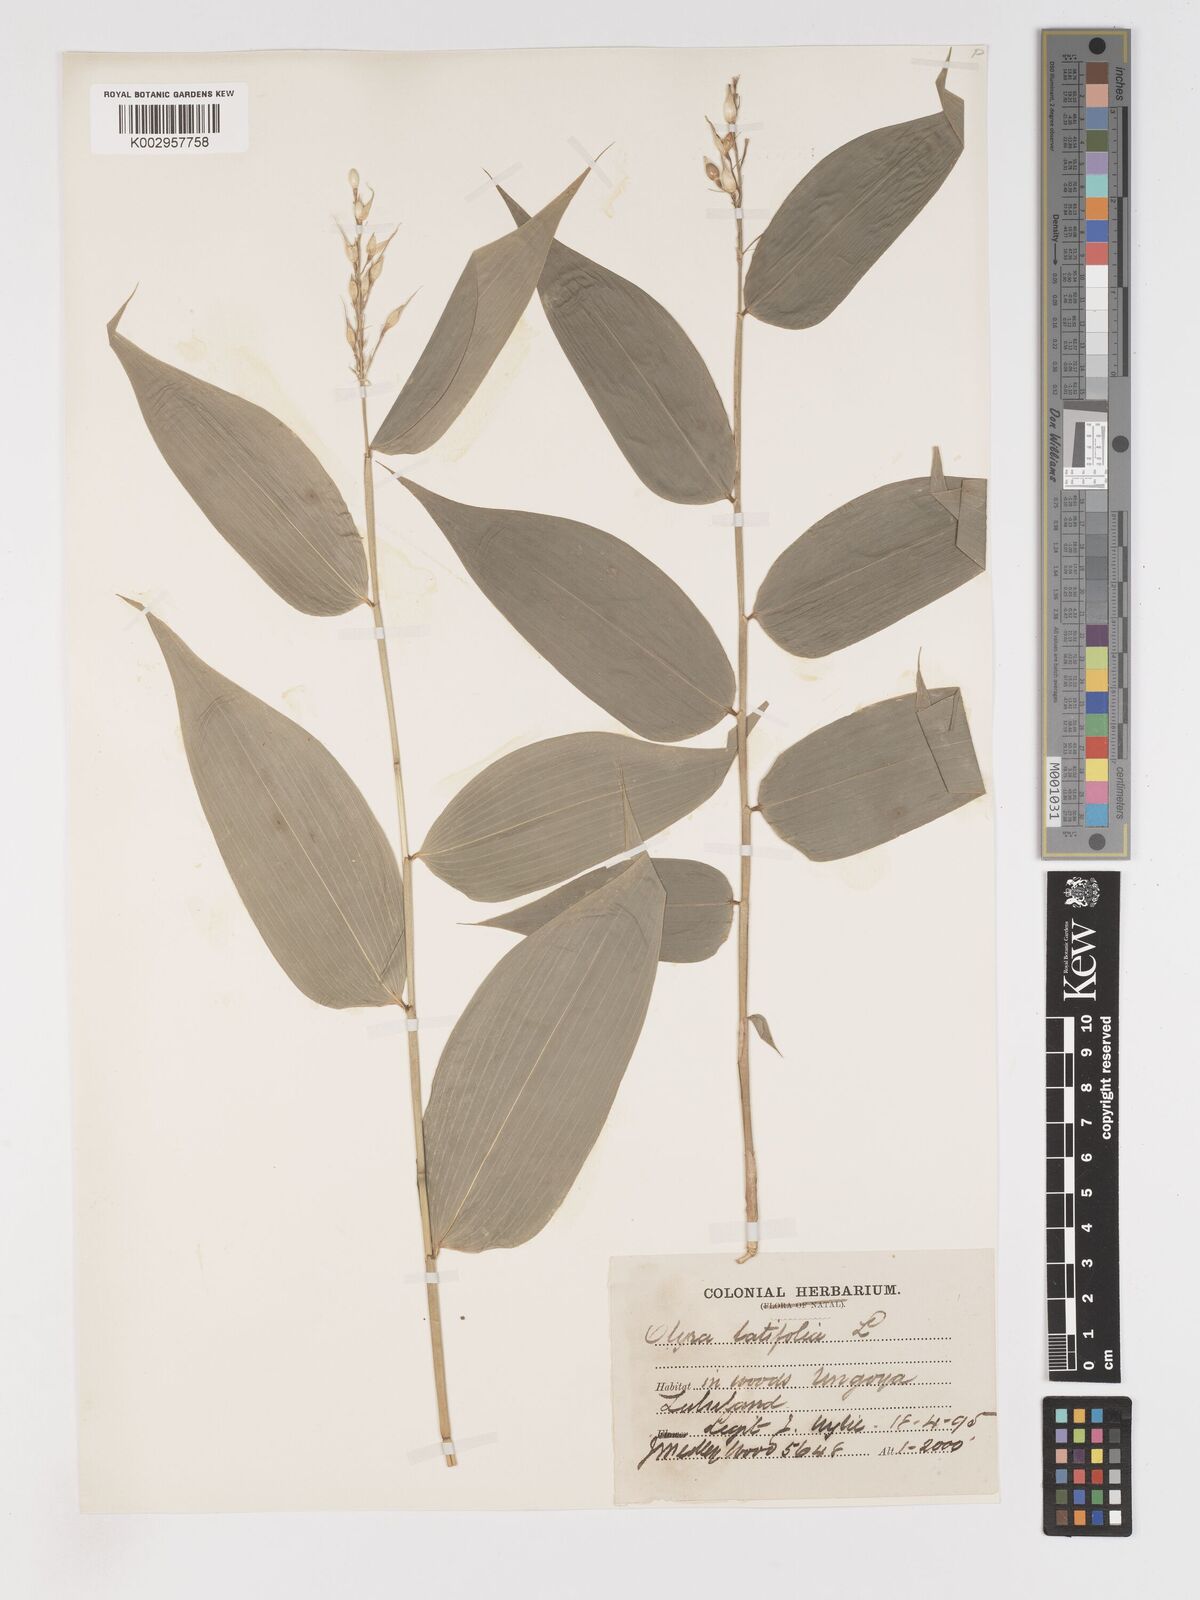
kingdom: Plantae
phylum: Tracheophyta
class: Liliopsida
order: Poales
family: Poaceae
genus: Olyra
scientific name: Olyra latifolia
